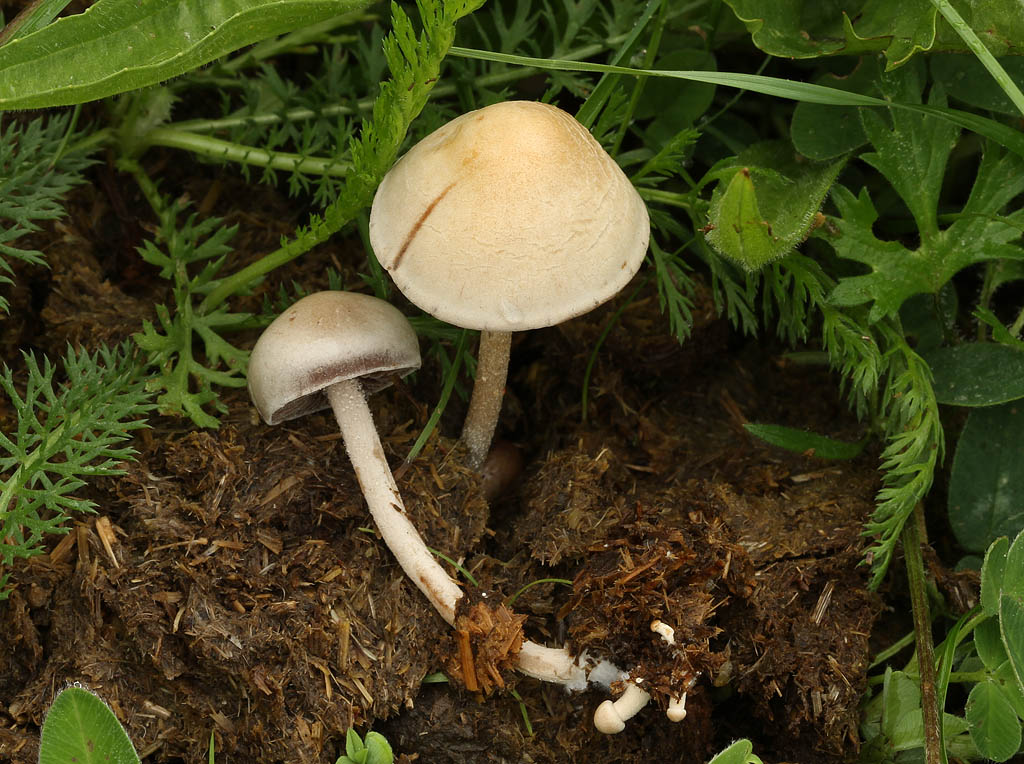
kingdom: Fungi
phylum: Basidiomycota
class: Agaricomycetes
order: Agaricales
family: Bolbitiaceae
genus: Panaeolus
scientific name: Panaeolus subfirmus
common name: fælled-glanshat
